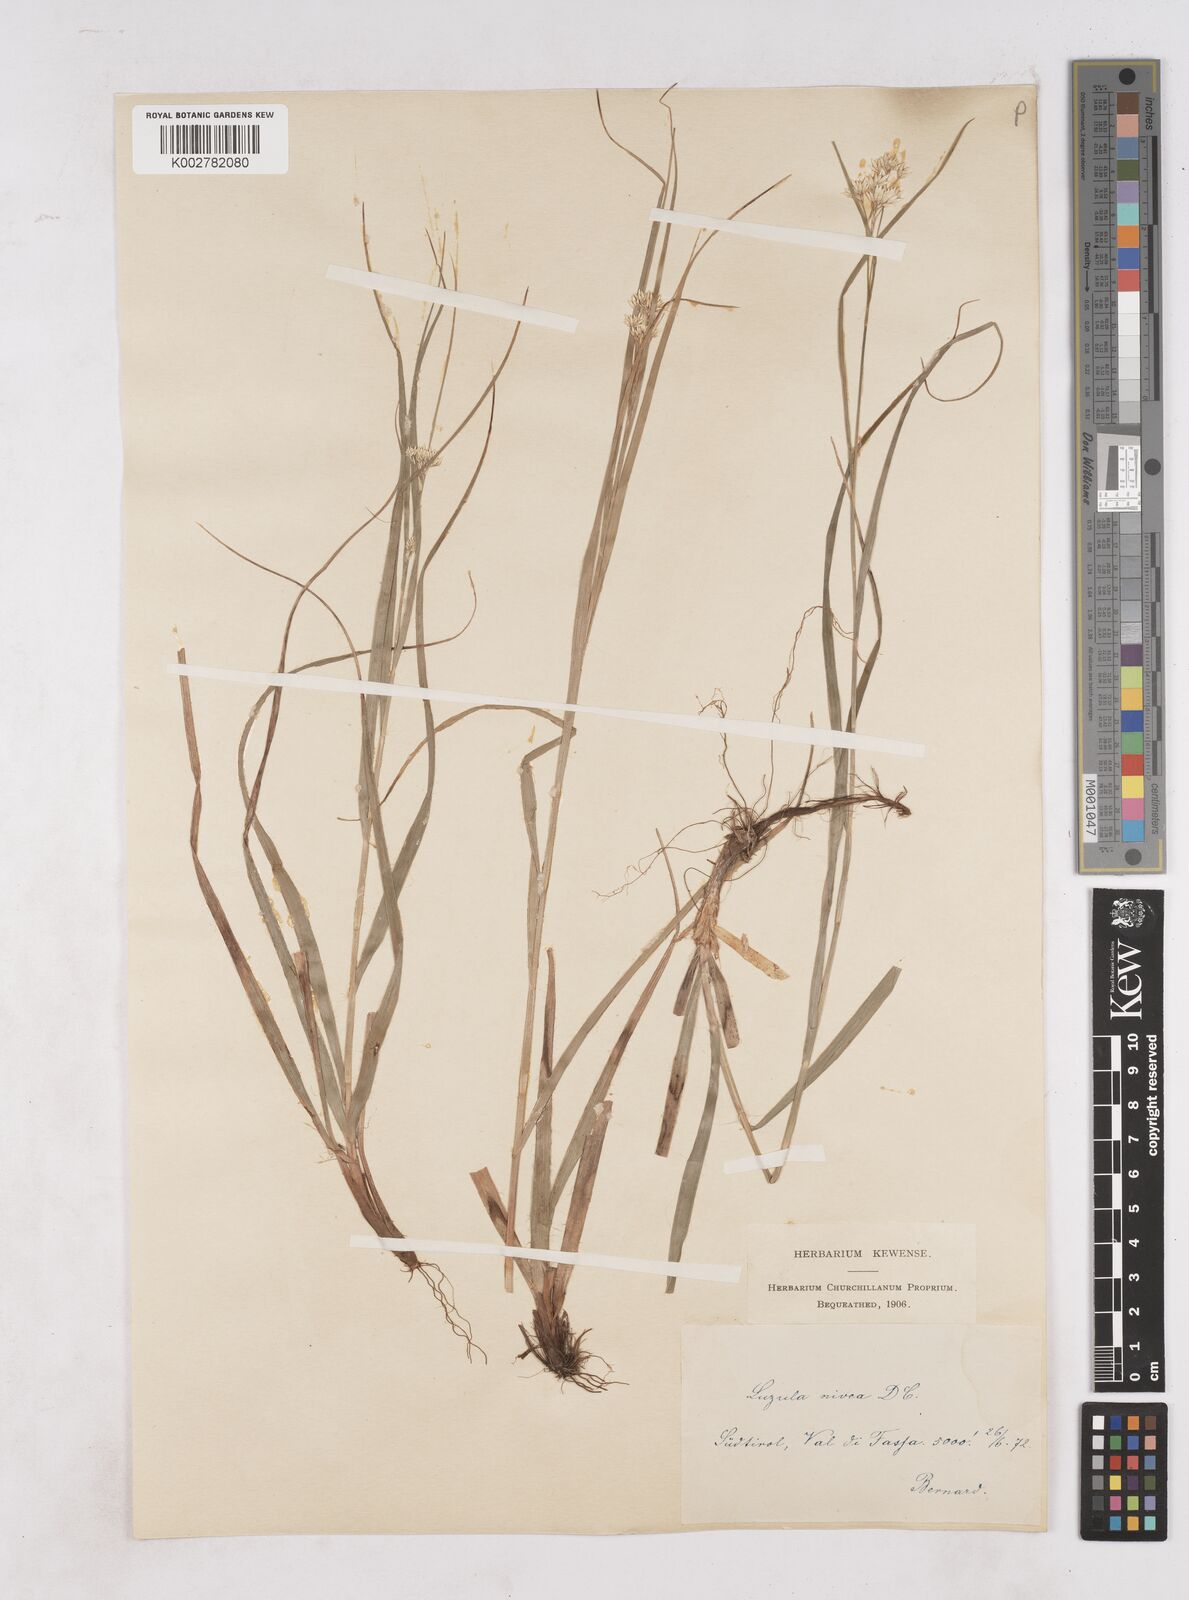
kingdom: Plantae
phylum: Tracheophyta
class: Liliopsida
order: Poales
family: Juncaceae
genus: Luzula
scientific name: Luzula nivea
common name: Snow-white wood-rush
